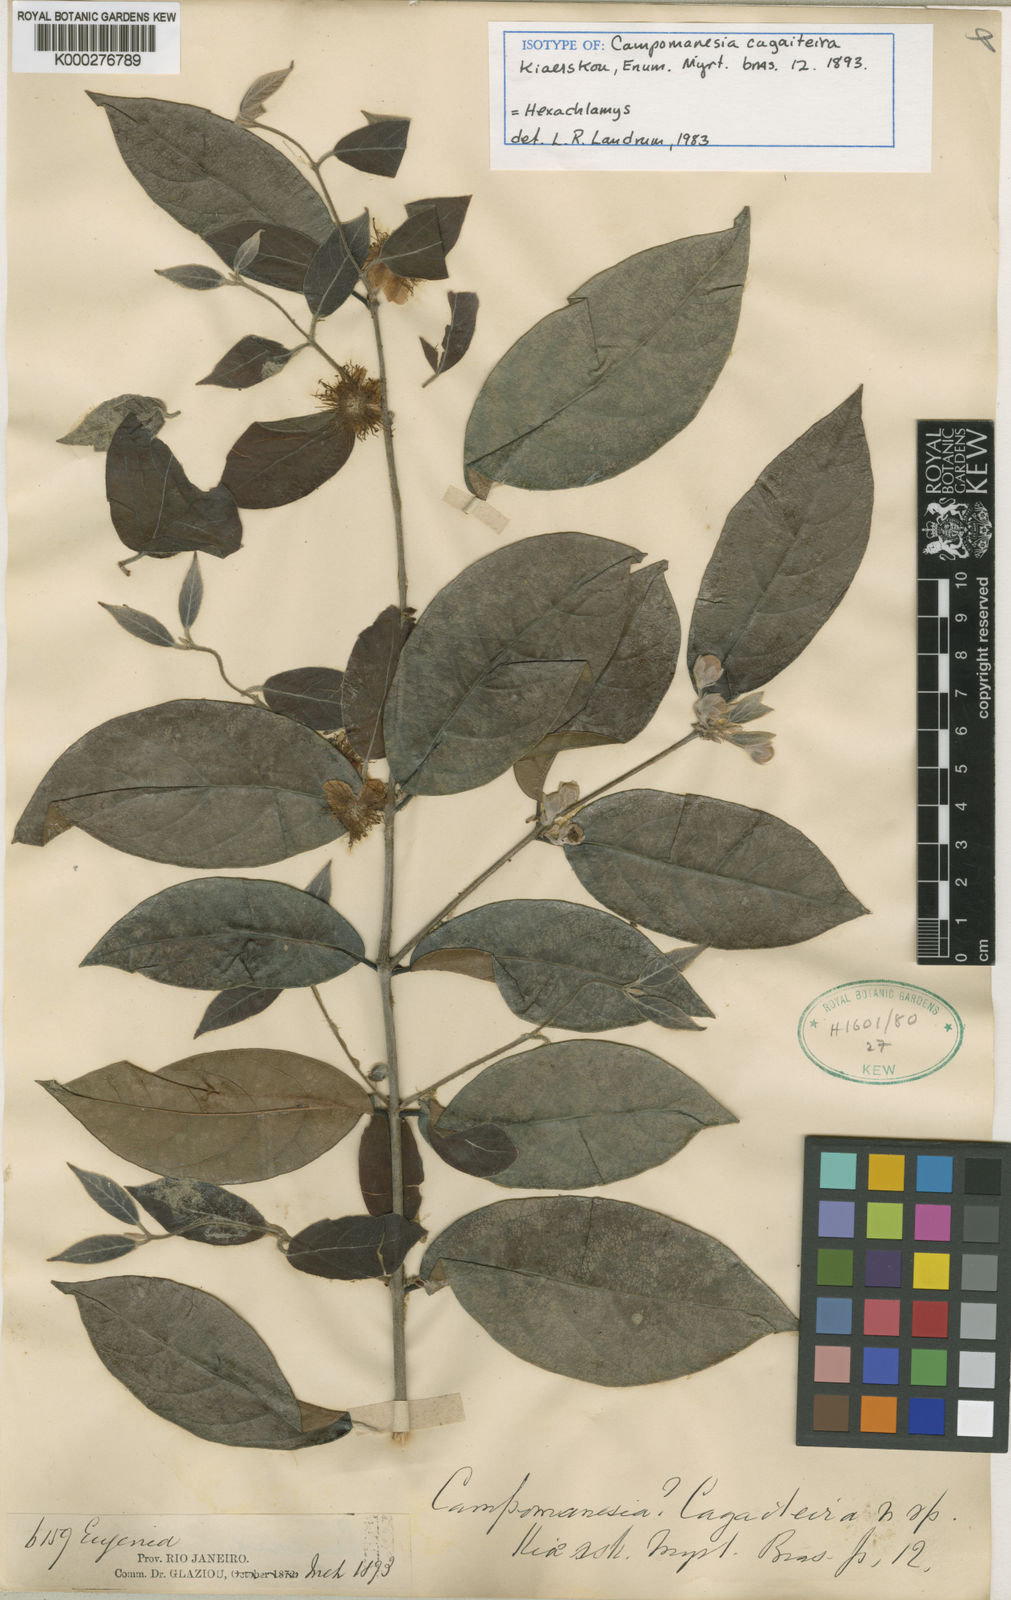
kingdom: Plantae
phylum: Tracheophyta
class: Magnoliopsida
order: Myrtales
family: Myrtaceae
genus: Eugenia
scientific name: Eugenia myrcianthes
